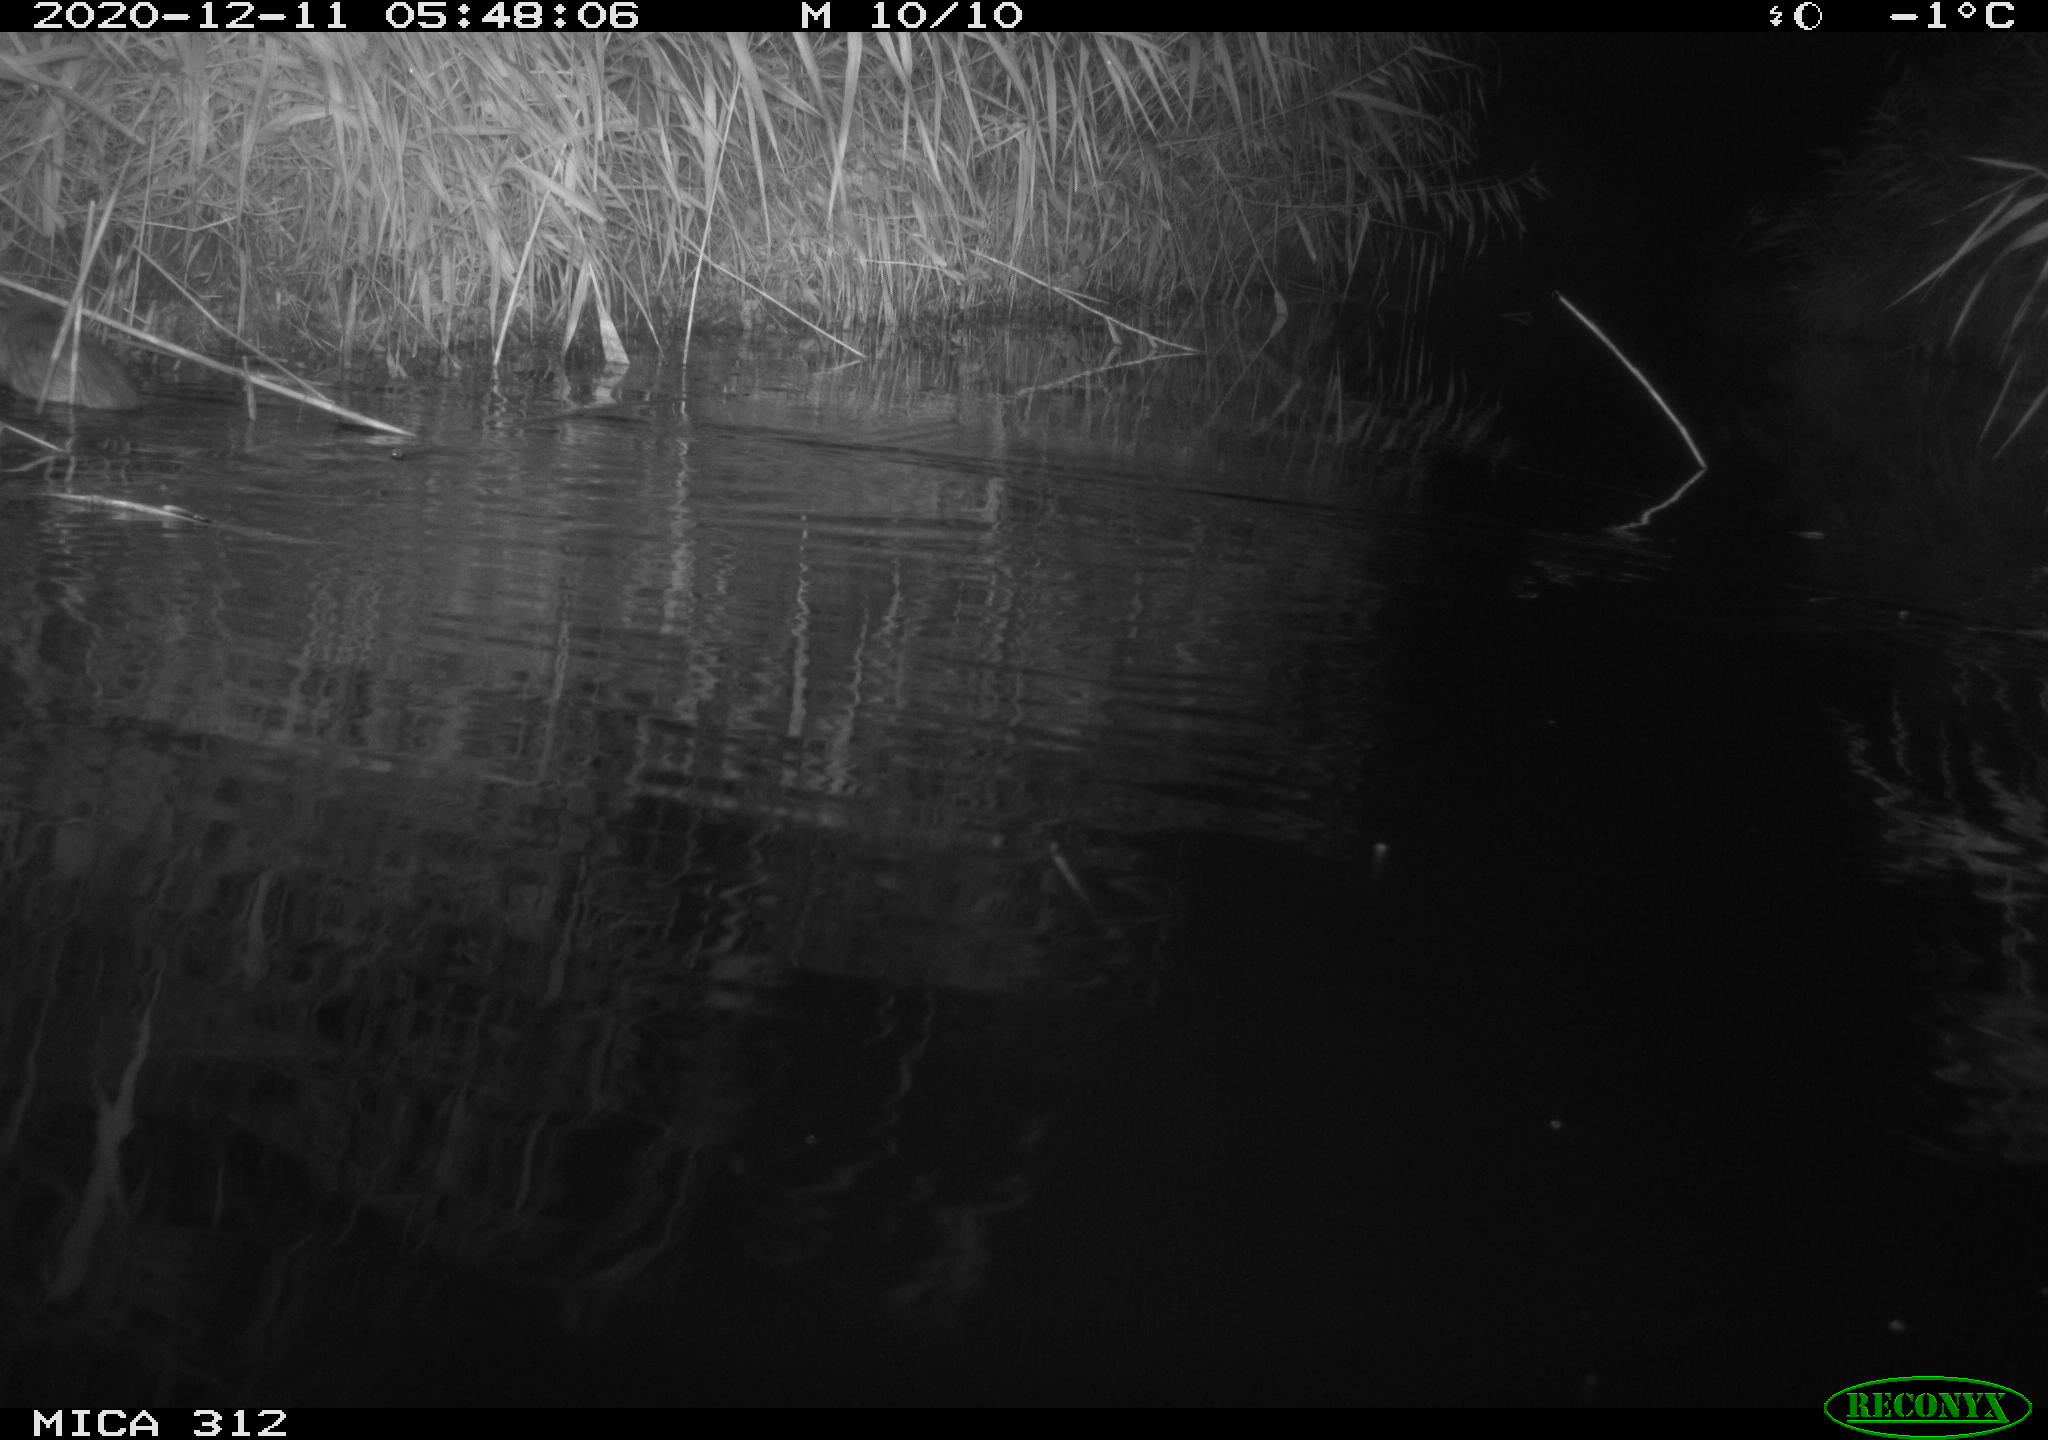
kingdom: Animalia
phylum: Chordata
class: Mammalia
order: Rodentia
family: Muridae
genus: Rattus
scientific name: Rattus norvegicus
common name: Brown rat
